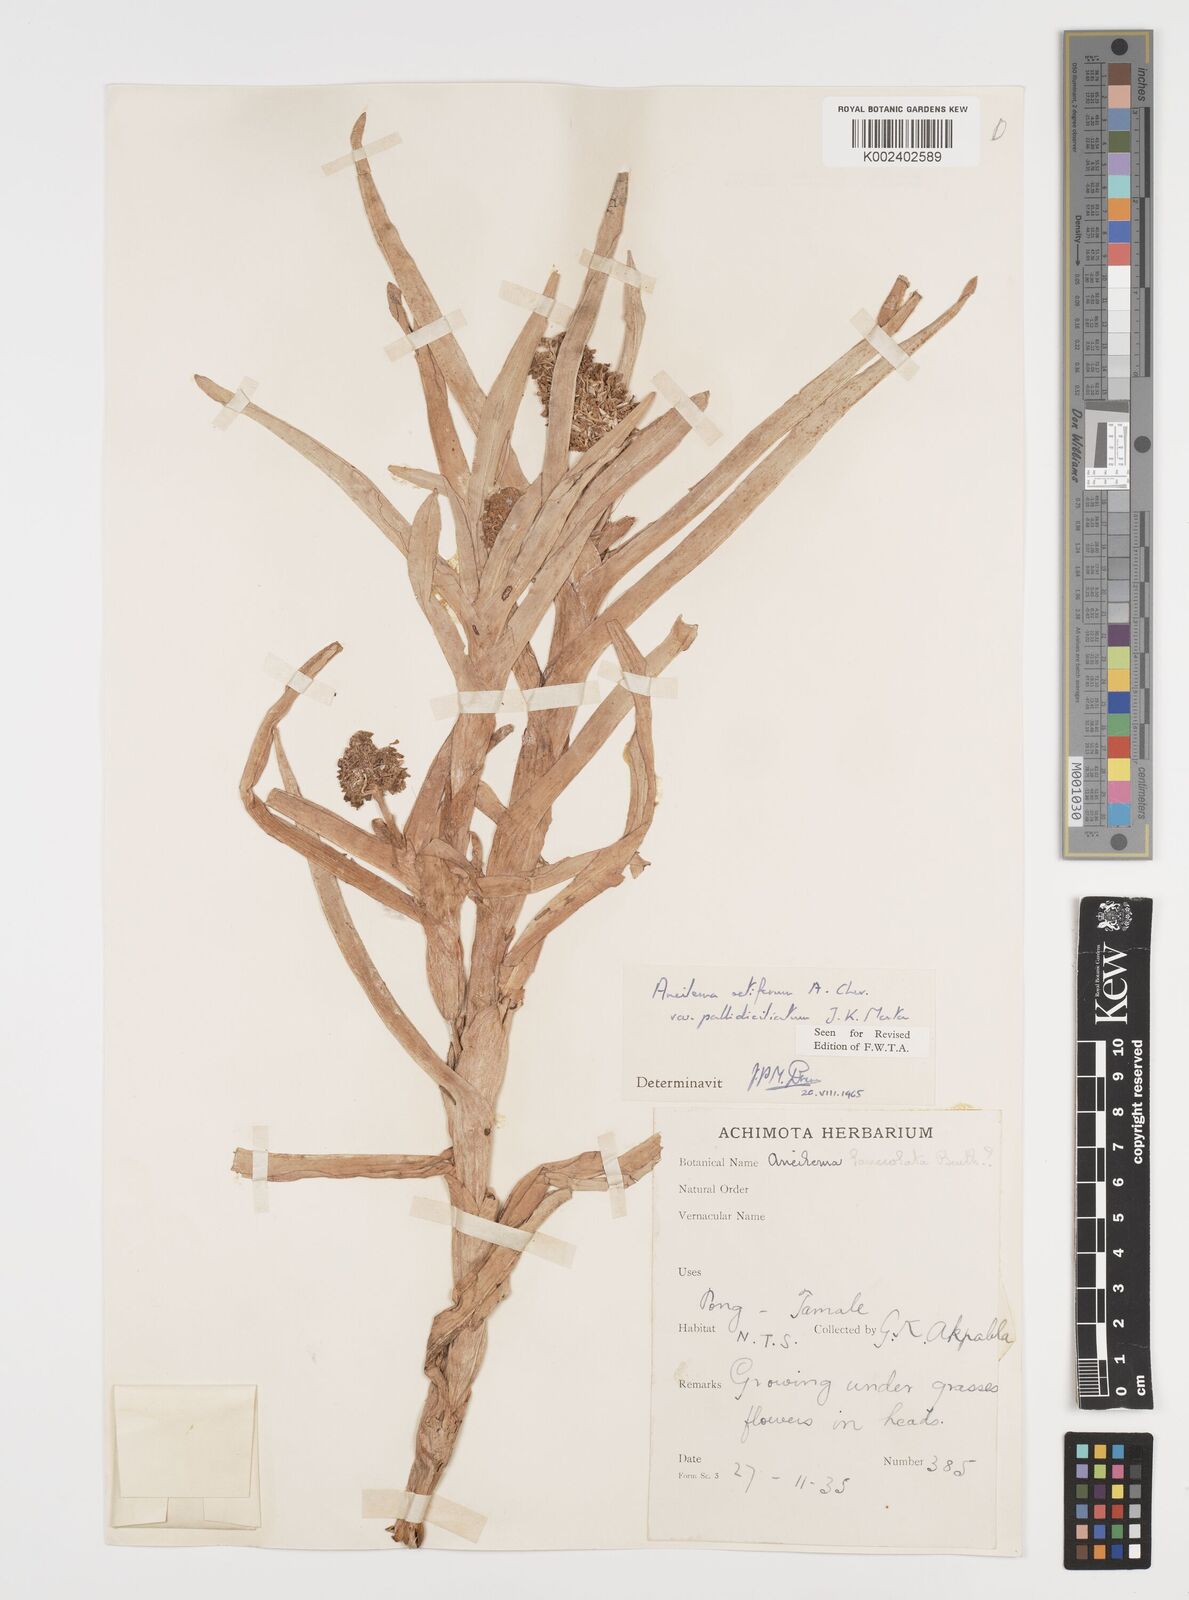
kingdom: Plantae
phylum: Tracheophyta
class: Liliopsida
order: Commelinales
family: Commelinaceae
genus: Aneilema
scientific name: Aneilema setiferum
